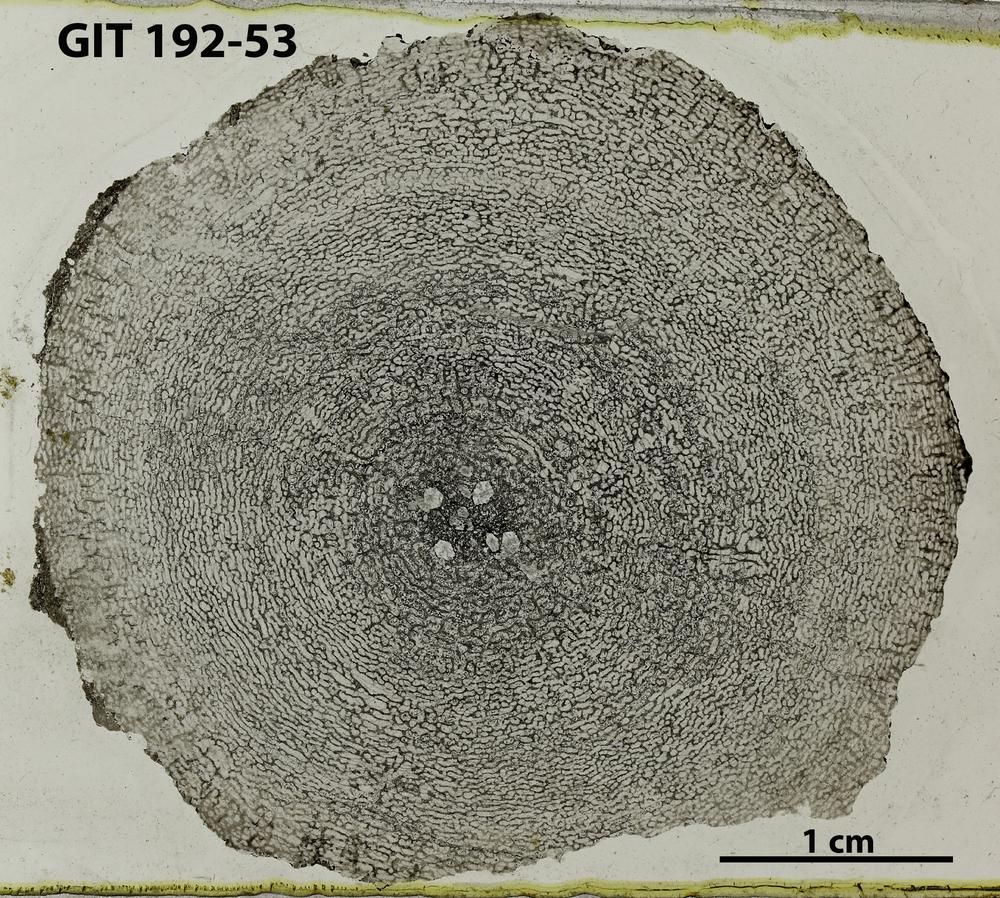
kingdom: Animalia
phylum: Porifera
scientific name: Porifera
